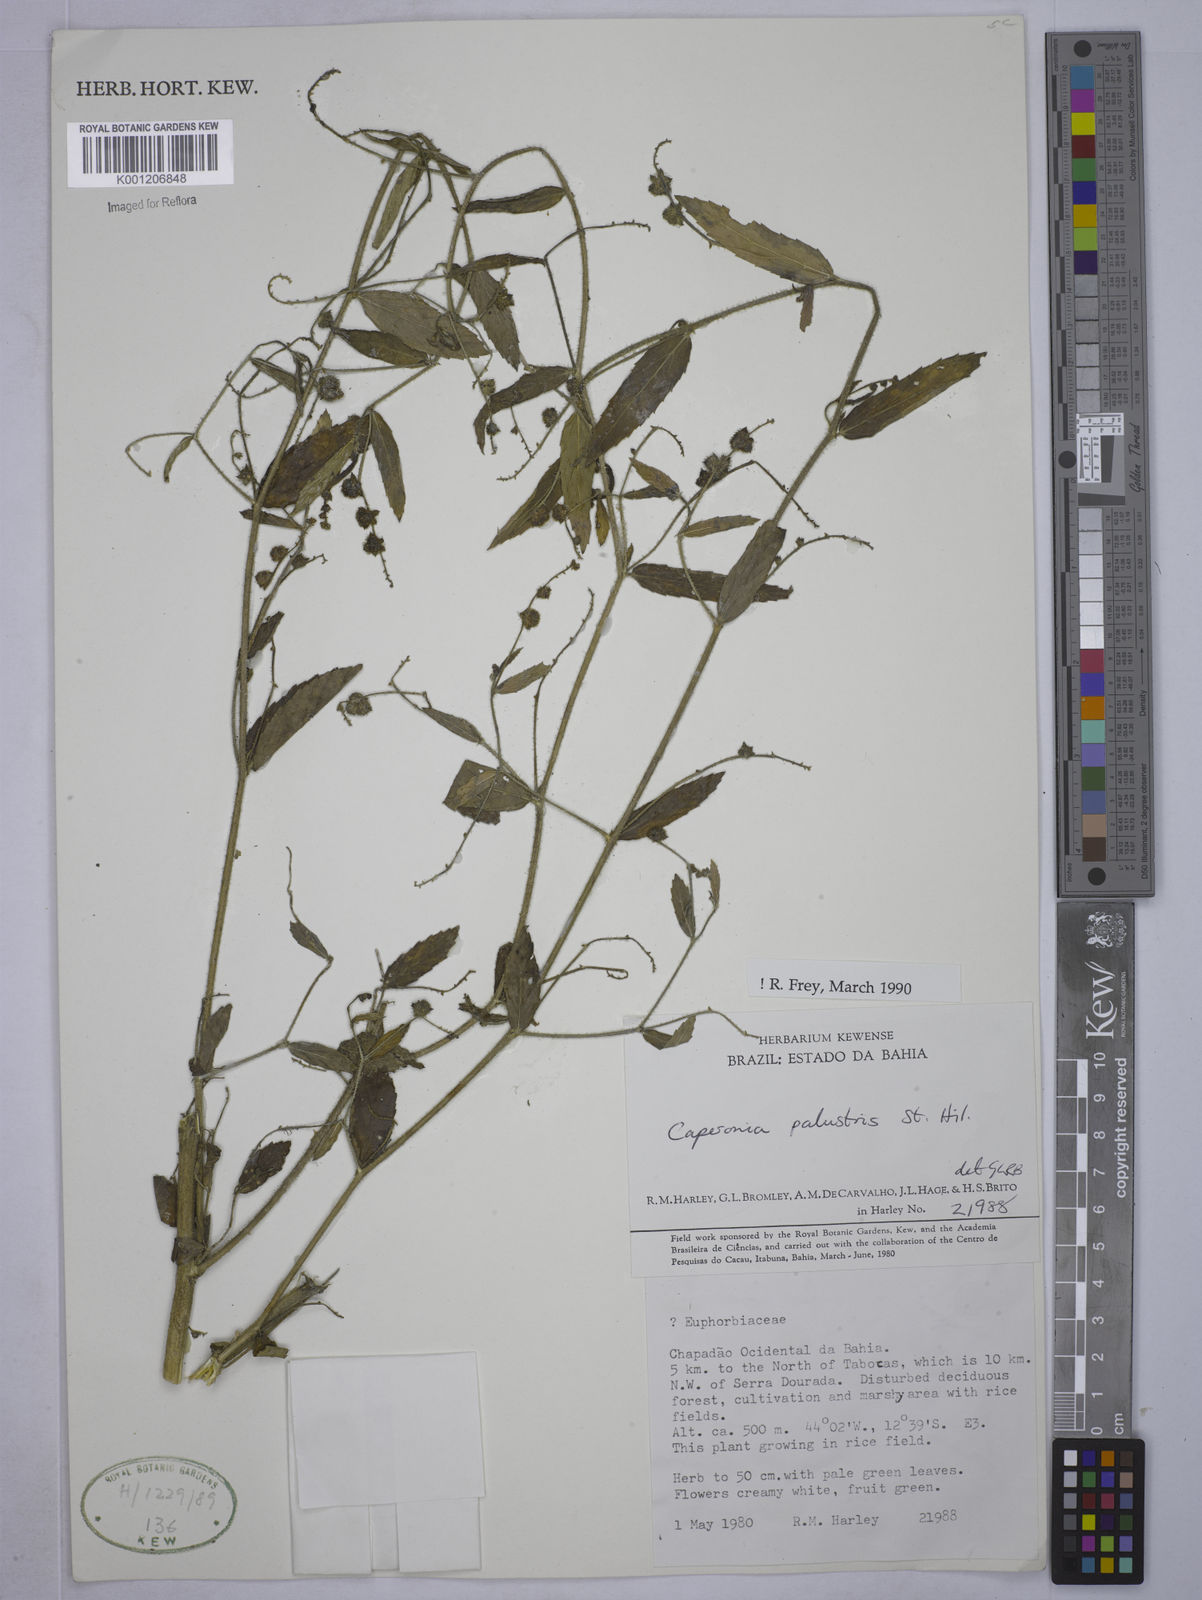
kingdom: Plantae
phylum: Tracheophyta
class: Magnoliopsida
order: Malpighiales
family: Euphorbiaceae
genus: Caperonia
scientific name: Caperonia palustris
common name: Sacatrapo
